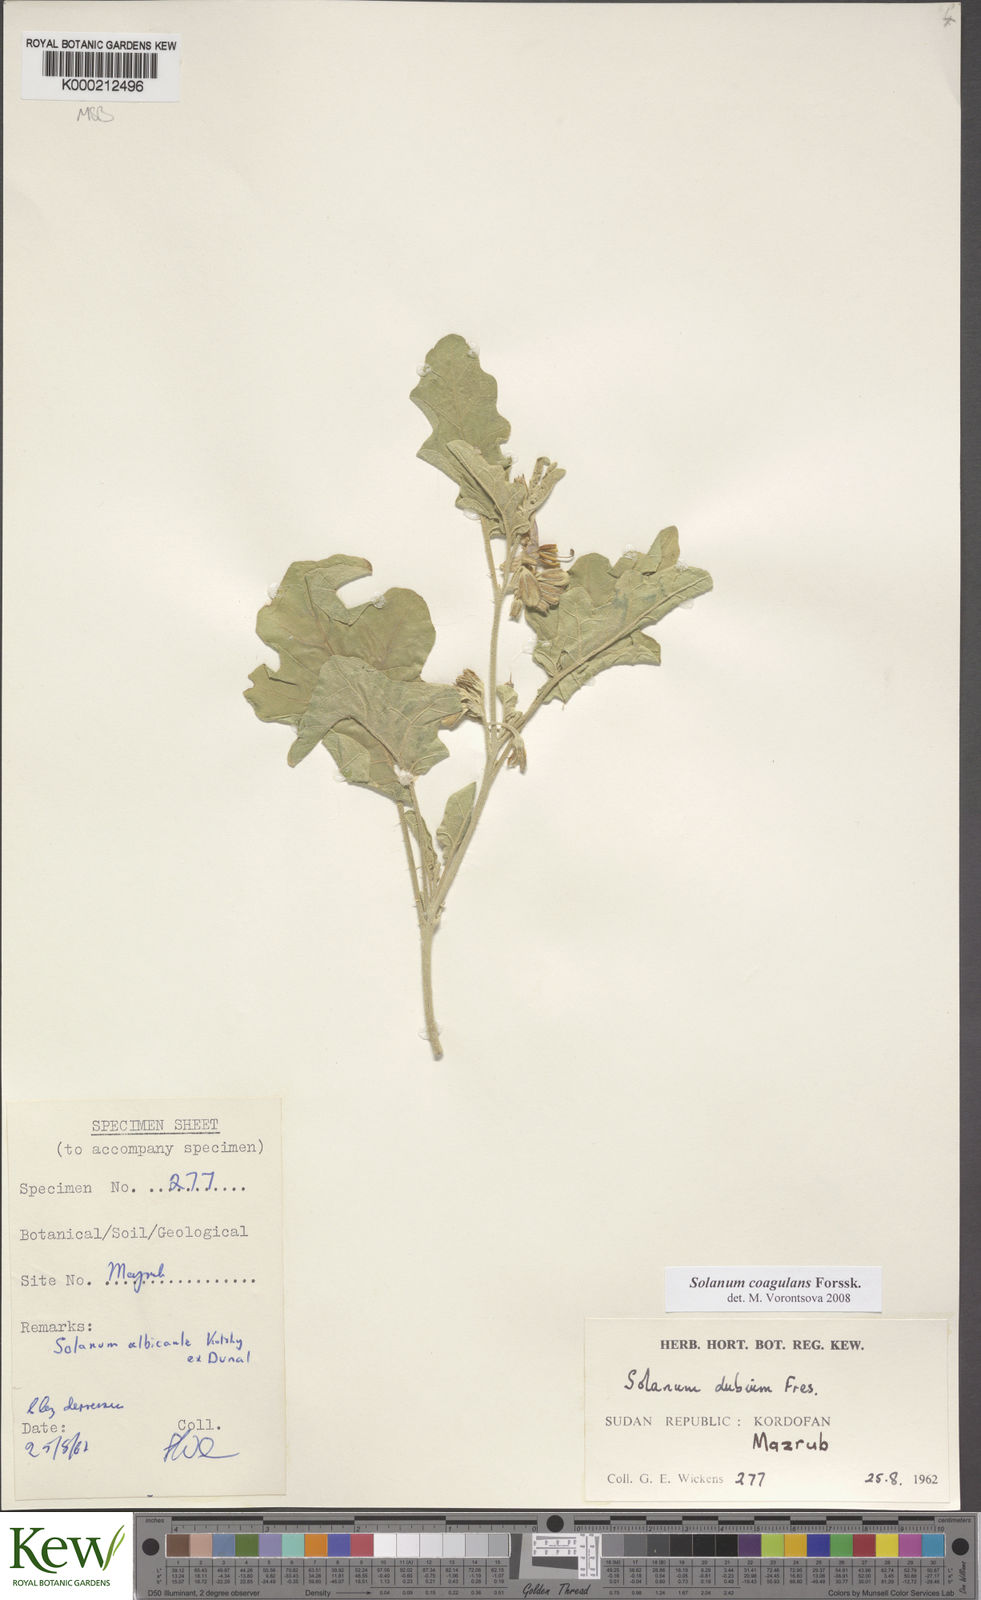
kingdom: Plantae
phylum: Tracheophyta
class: Magnoliopsida
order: Solanales
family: Solanaceae
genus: Solanum
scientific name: Solanum coagulans
